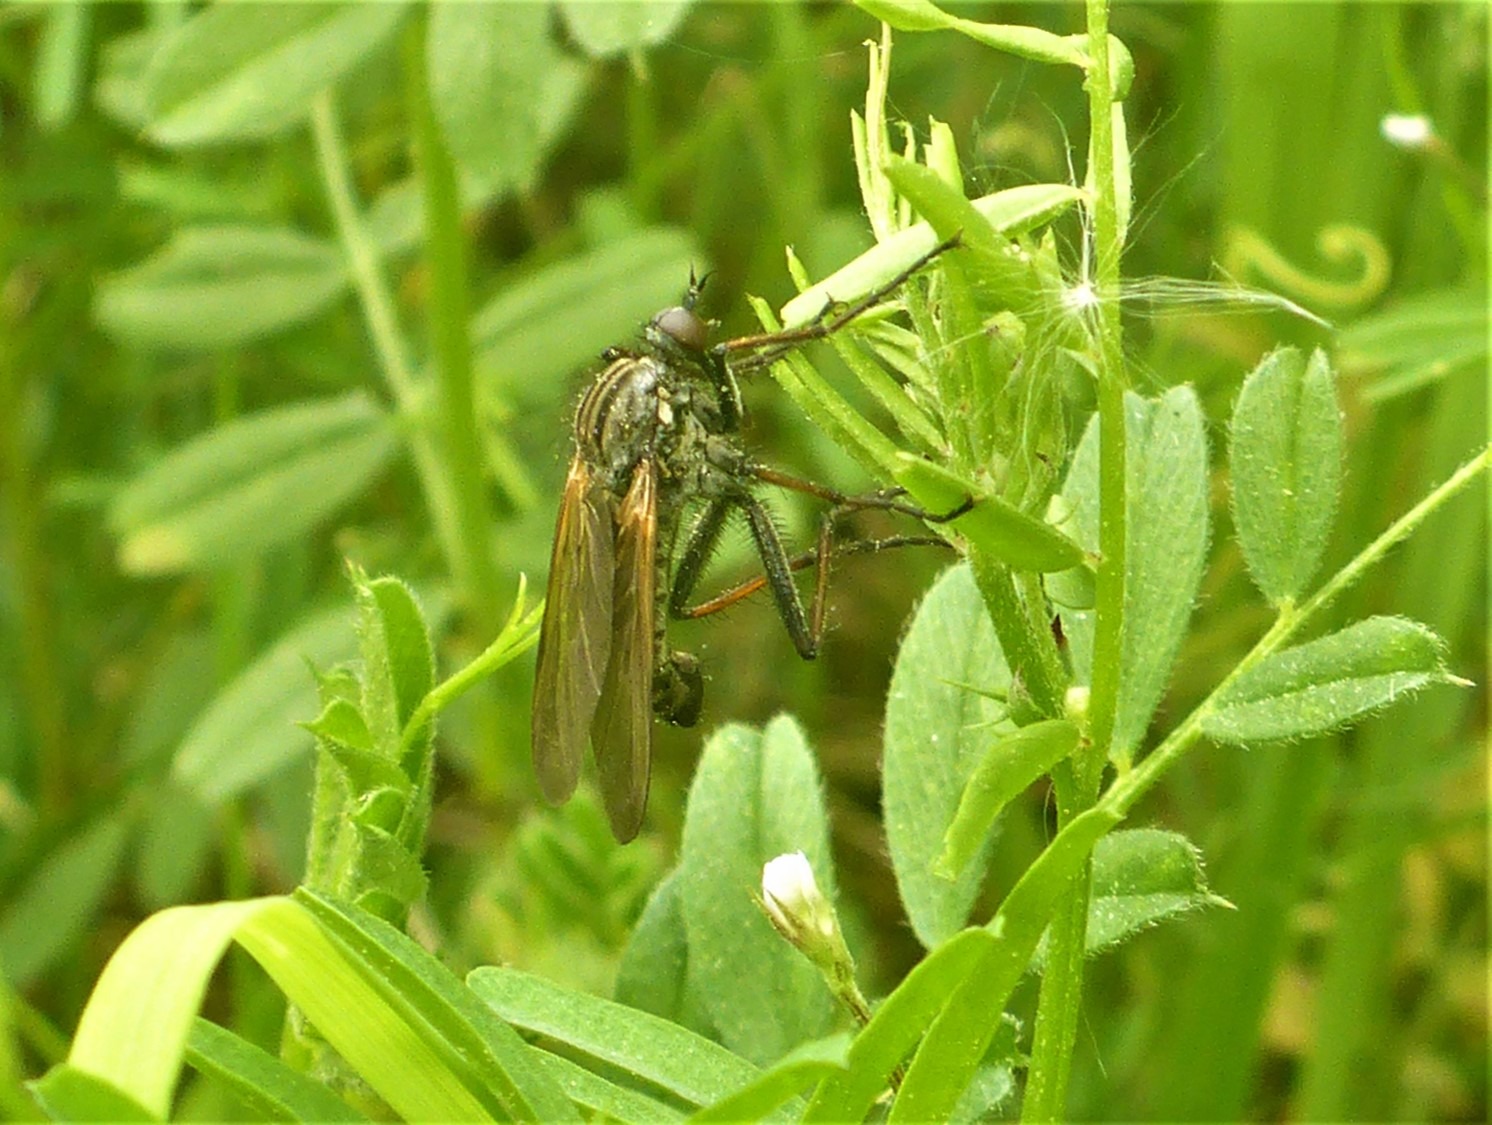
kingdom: Animalia
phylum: Arthropoda
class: Insecta
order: Diptera
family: Empididae
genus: Empis
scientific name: Empis tessellata
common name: Stor danseflue
